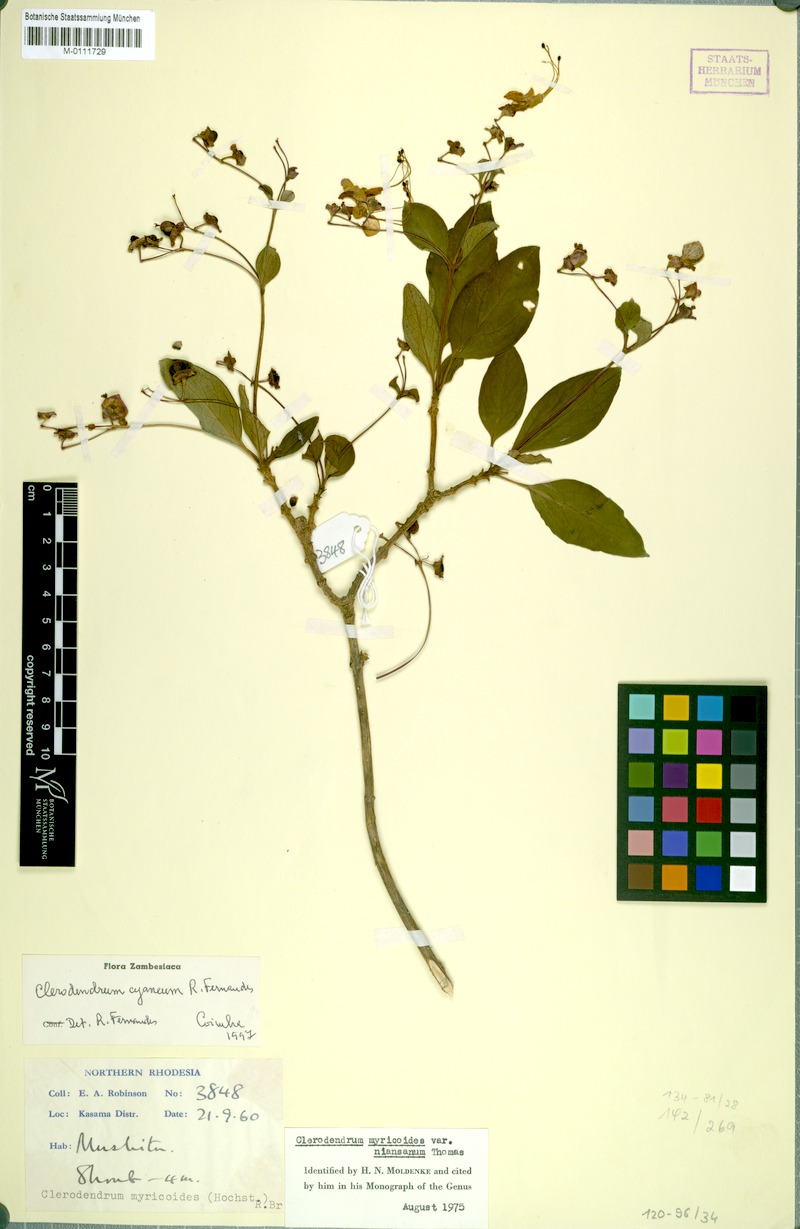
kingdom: Plantae
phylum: Tracheophyta
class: Magnoliopsida
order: Lamiales
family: Lamiaceae
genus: Rotheca
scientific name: Rotheca cyanea
